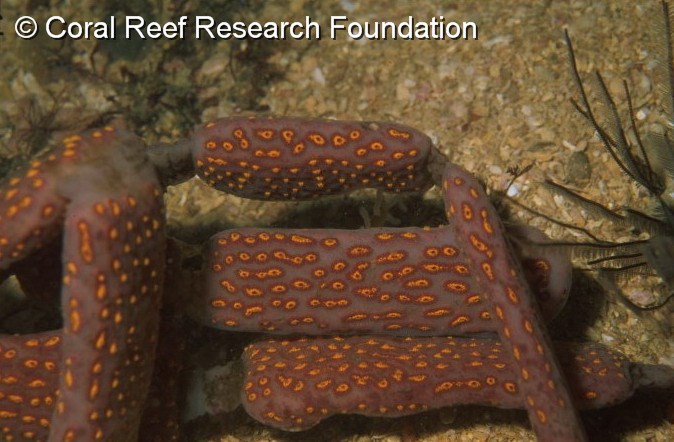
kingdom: Animalia
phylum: Chordata
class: Ascidiacea
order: Stolidobranchia
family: Styelidae
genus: Botryllus
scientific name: Botryllus closionis
